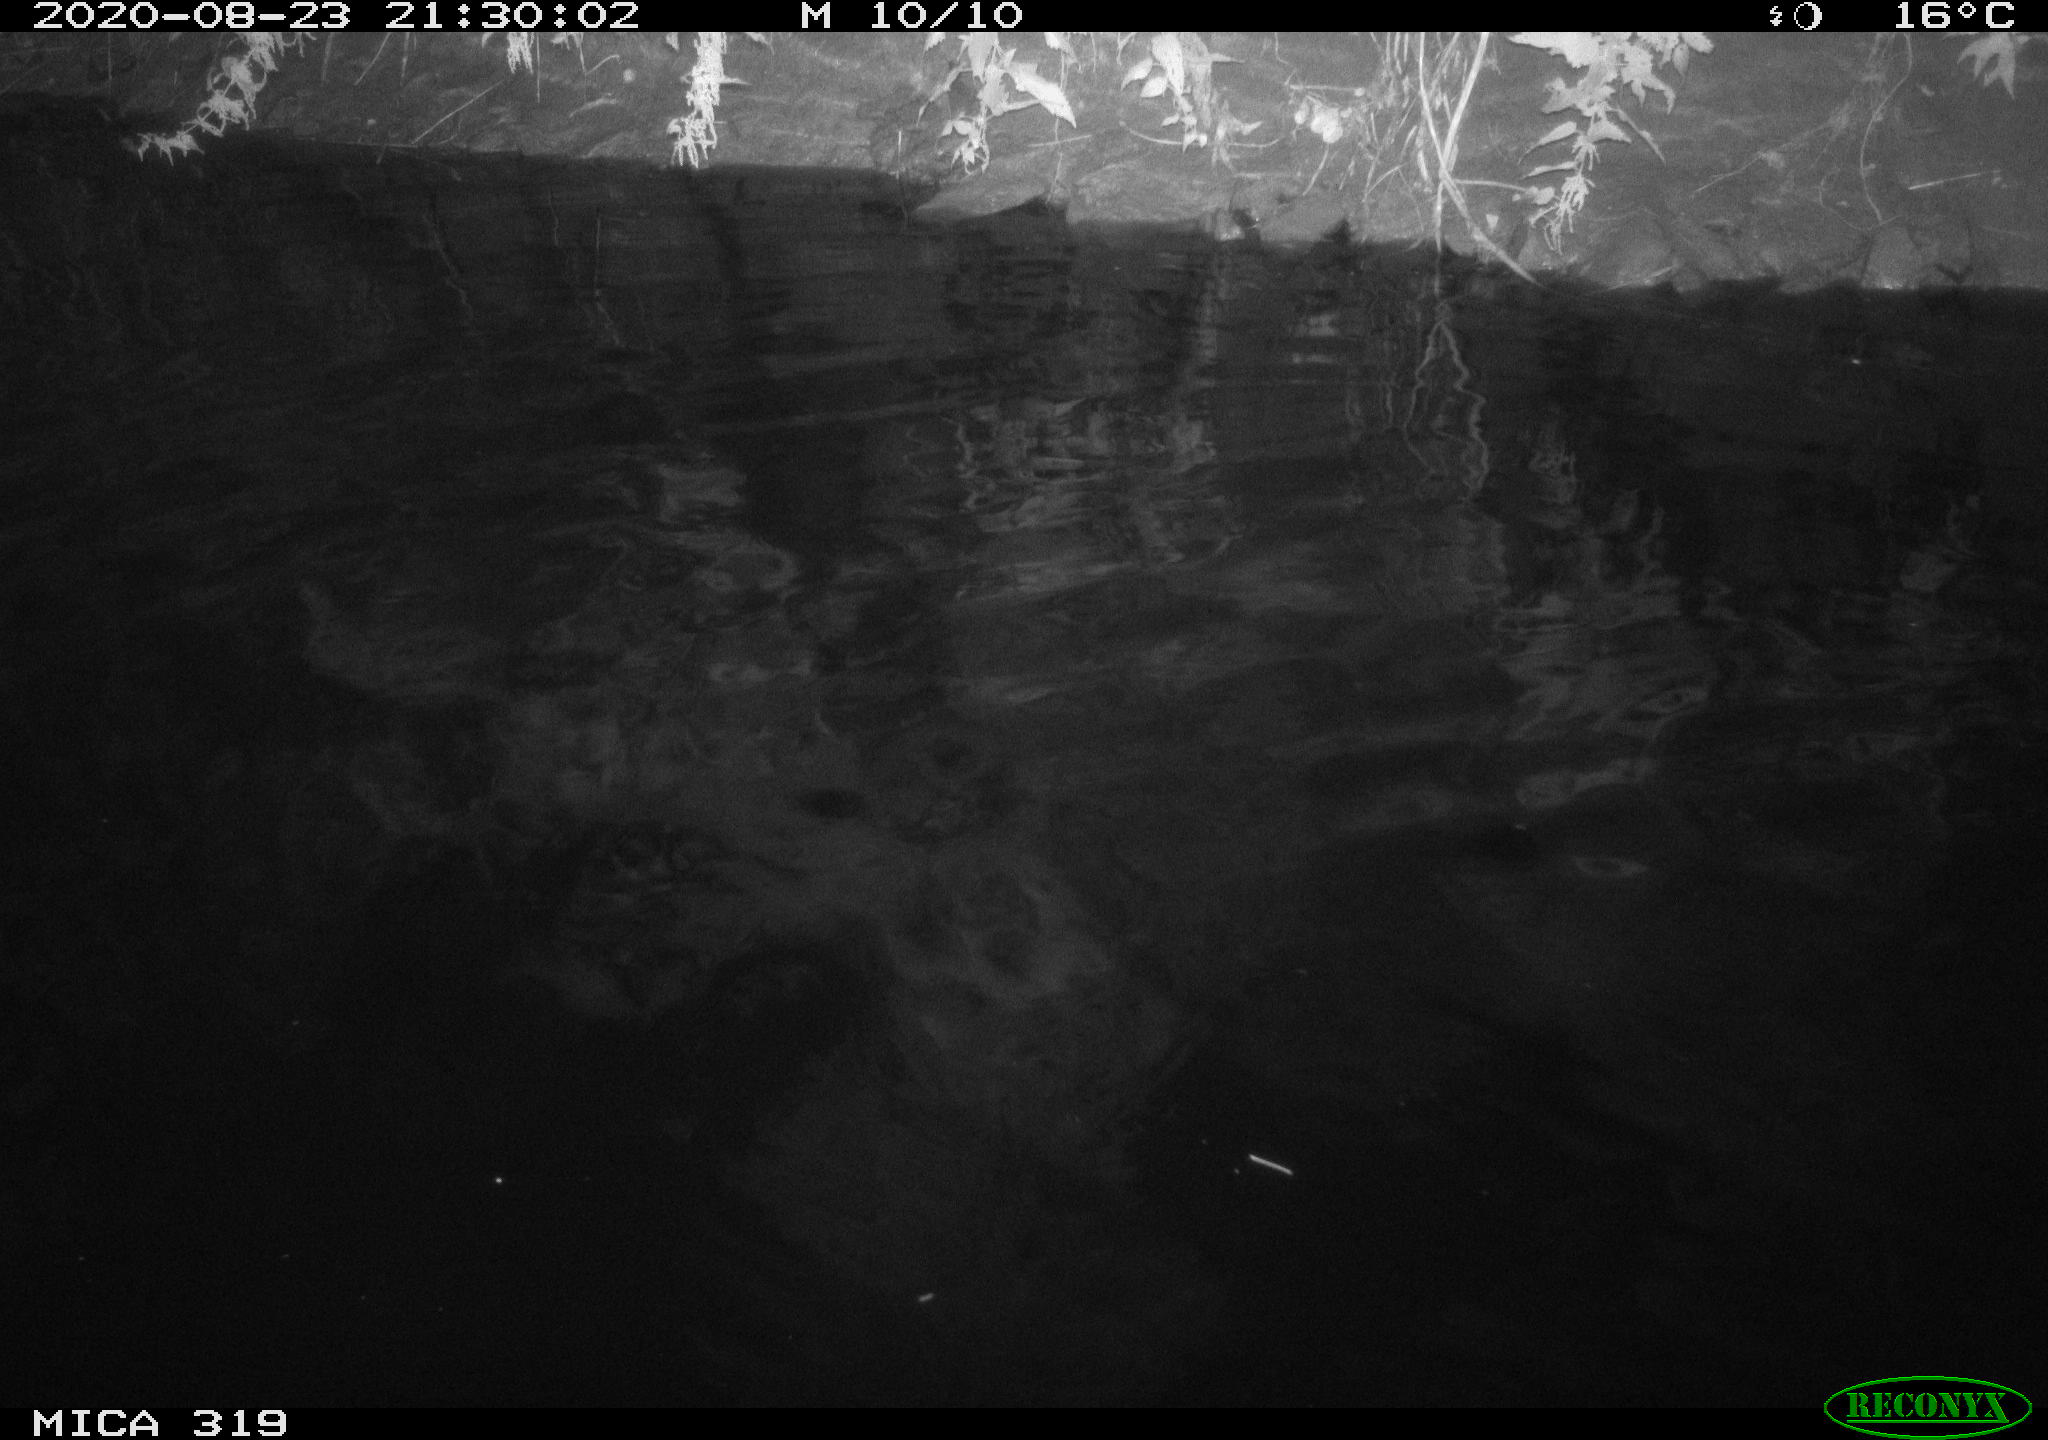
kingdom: Animalia
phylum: Chordata
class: Aves
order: Anseriformes
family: Anatidae
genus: Anas
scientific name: Anas platyrhynchos
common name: Mallard
